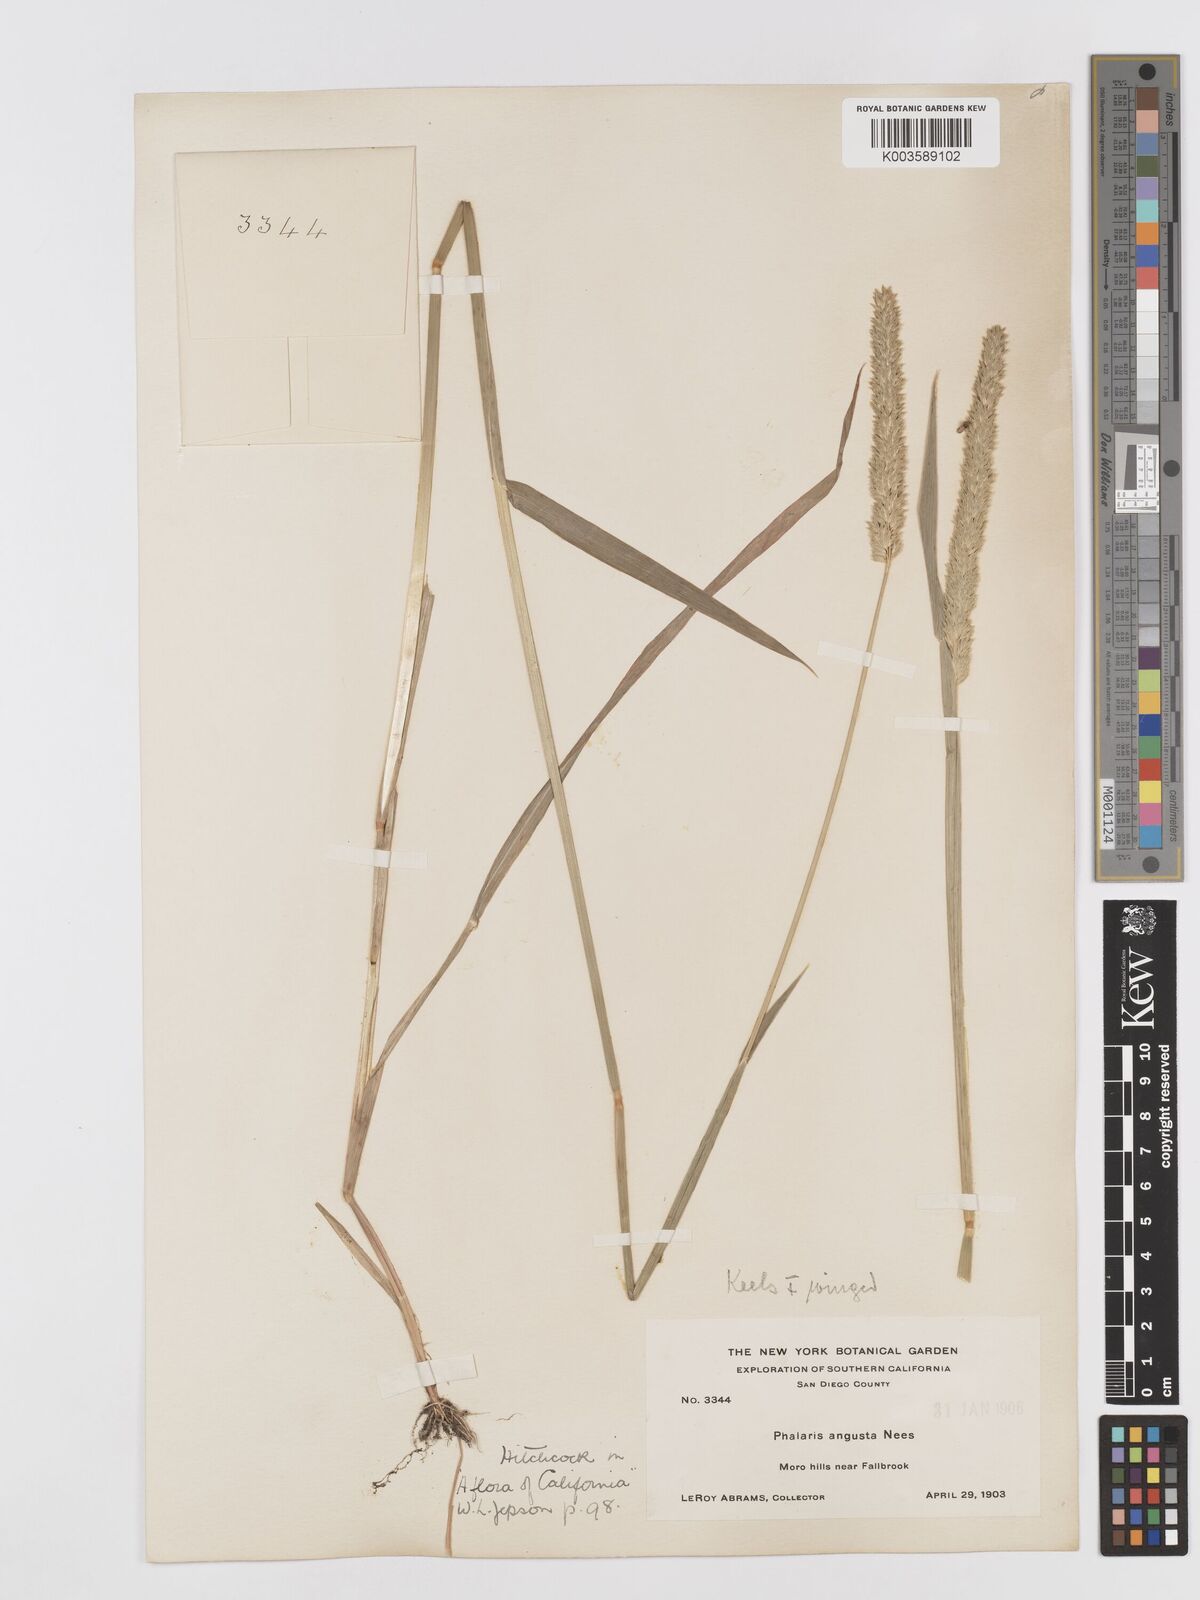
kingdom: Plantae
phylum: Tracheophyta
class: Liliopsida
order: Poales
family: Poaceae
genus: Phalaris
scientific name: Phalaris
